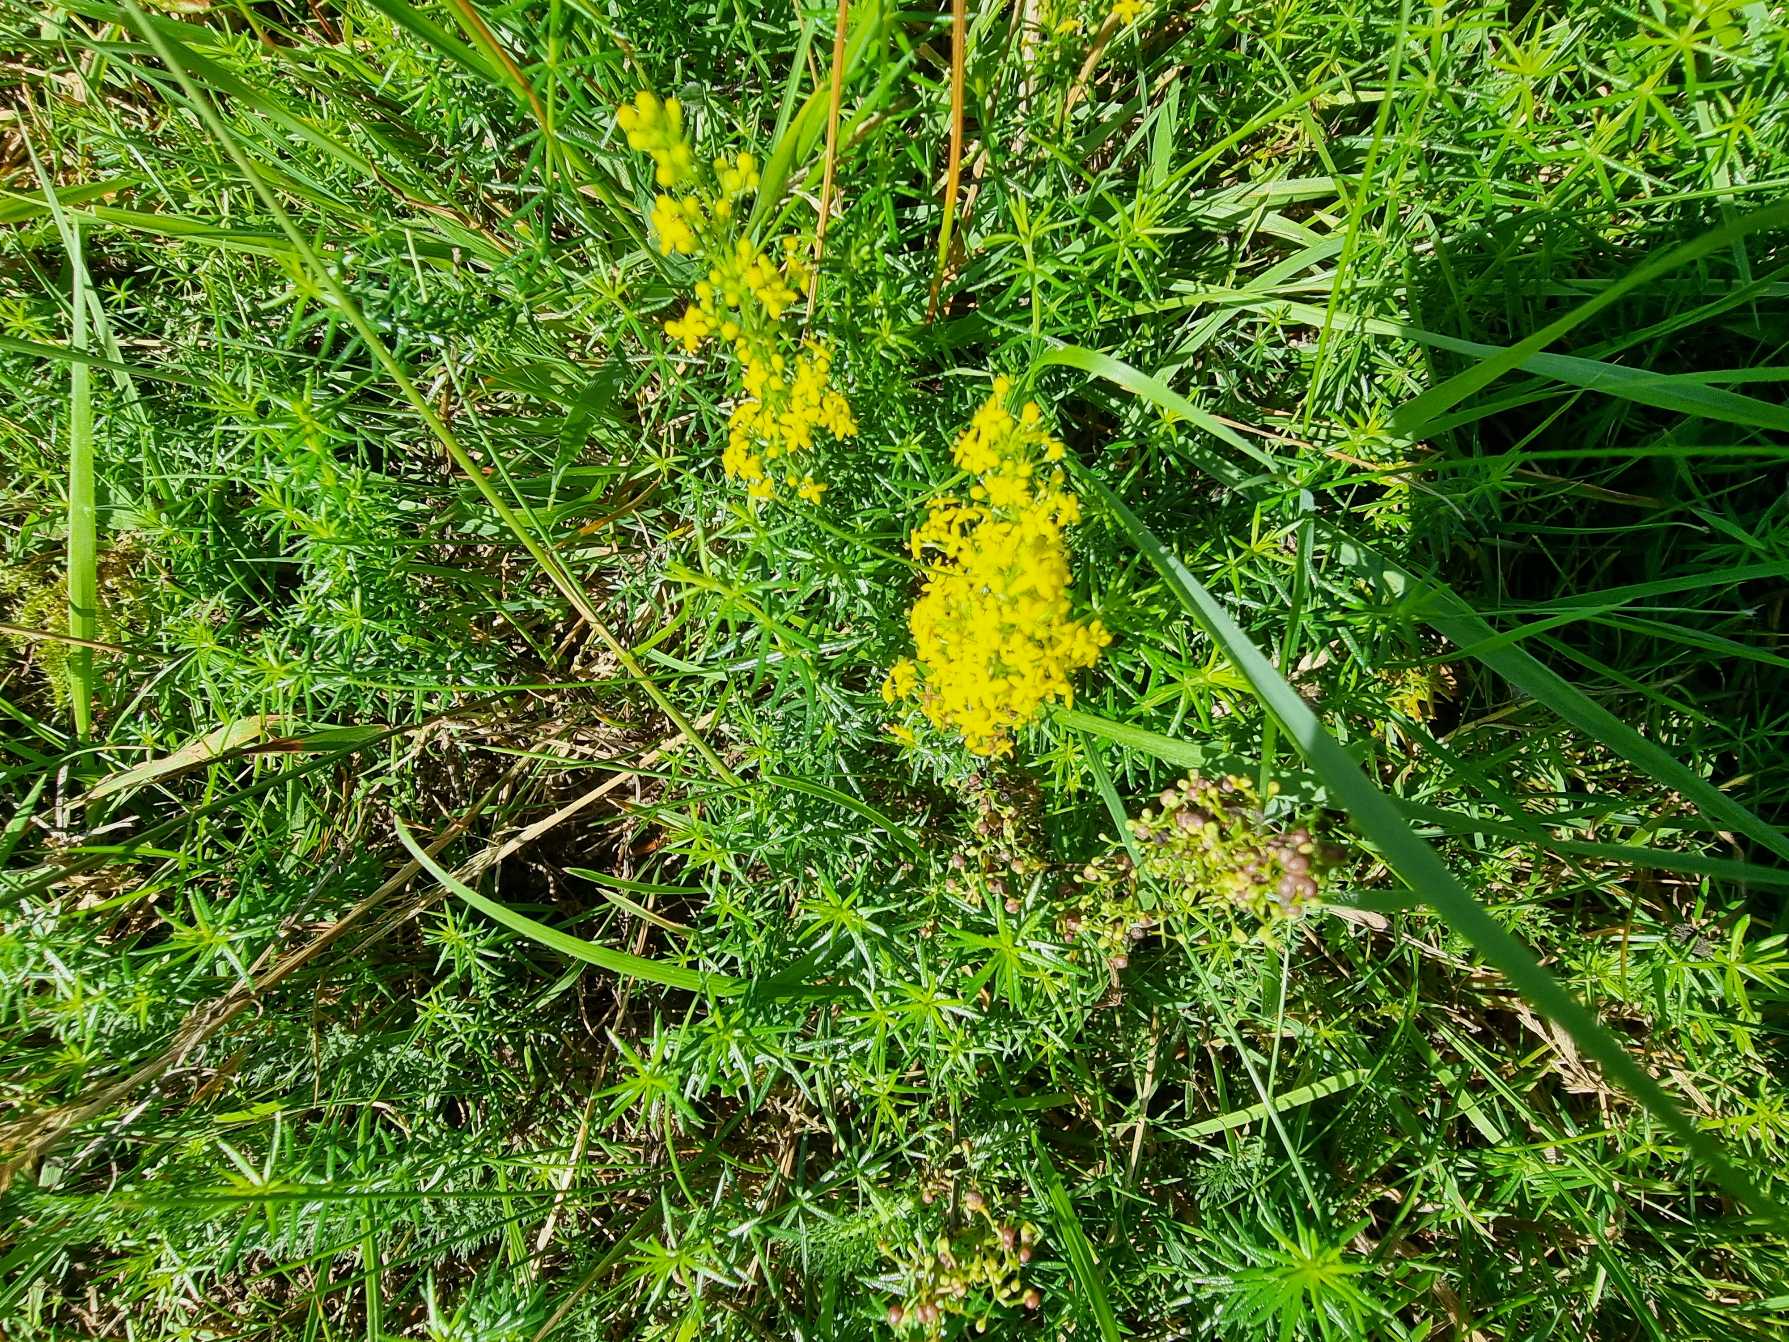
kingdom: Plantae
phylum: Tracheophyta
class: Magnoliopsida
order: Gentianales
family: Rubiaceae
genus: Galium
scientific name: Galium verum
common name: Gul snerre
